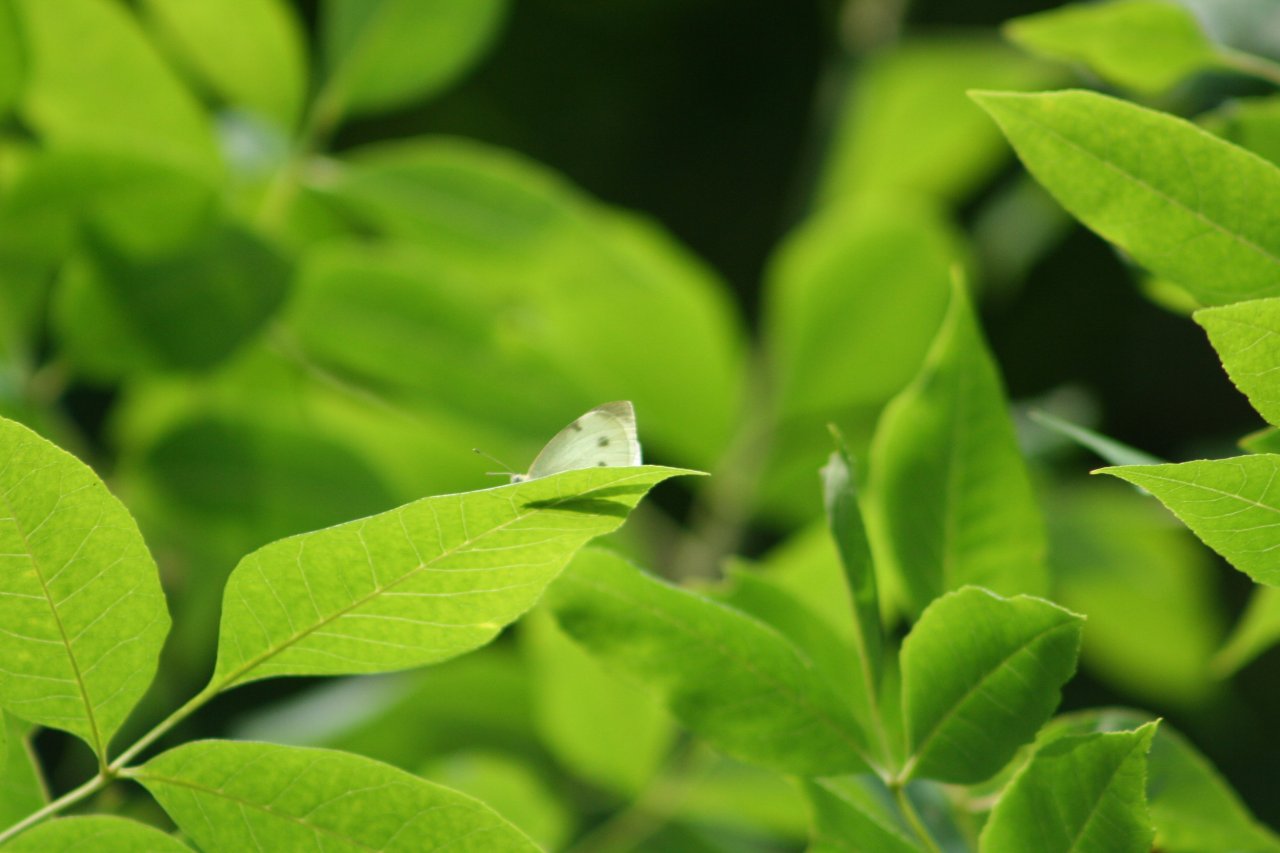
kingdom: Animalia
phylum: Arthropoda
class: Insecta
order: Lepidoptera
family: Pieridae
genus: Pieris
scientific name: Pieris rapae
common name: Cabbage White
